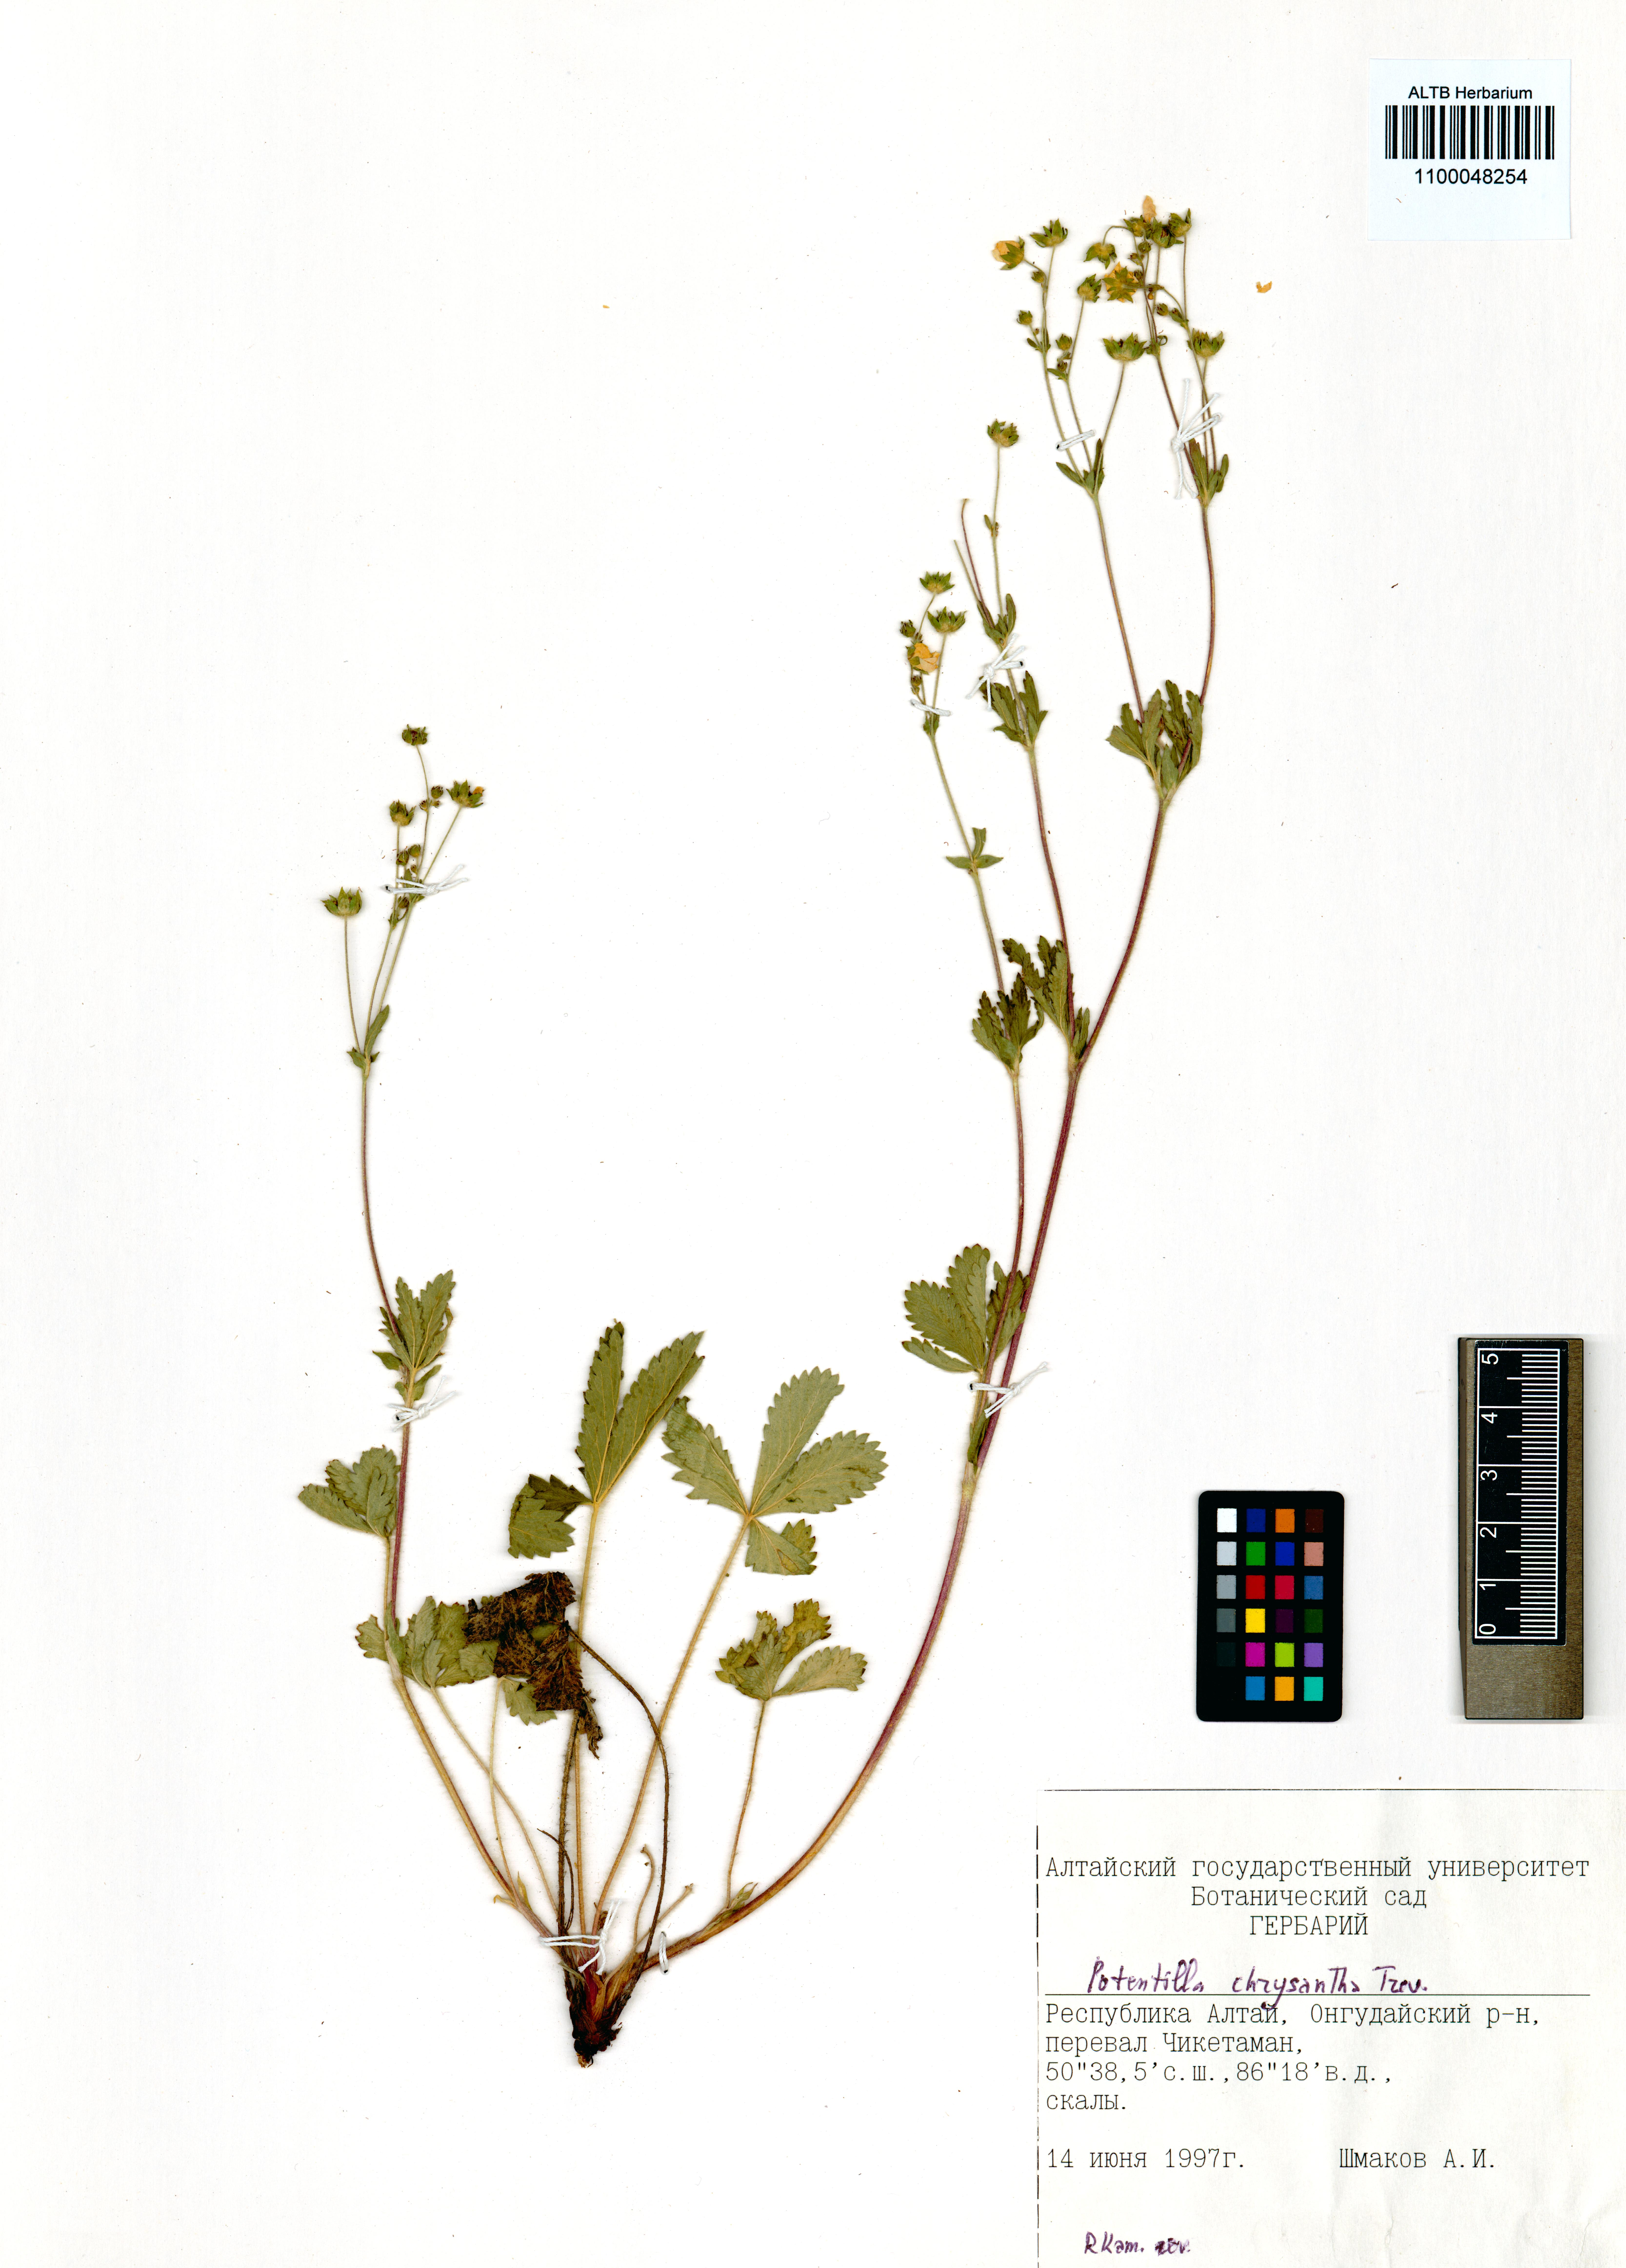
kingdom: Plantae
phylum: Tracheophyta
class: Magnoliopsida
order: Rosales
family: Rosaceae
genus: Potentilla
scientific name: Potentilla chrysantha
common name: Thuringian cinquefoil
